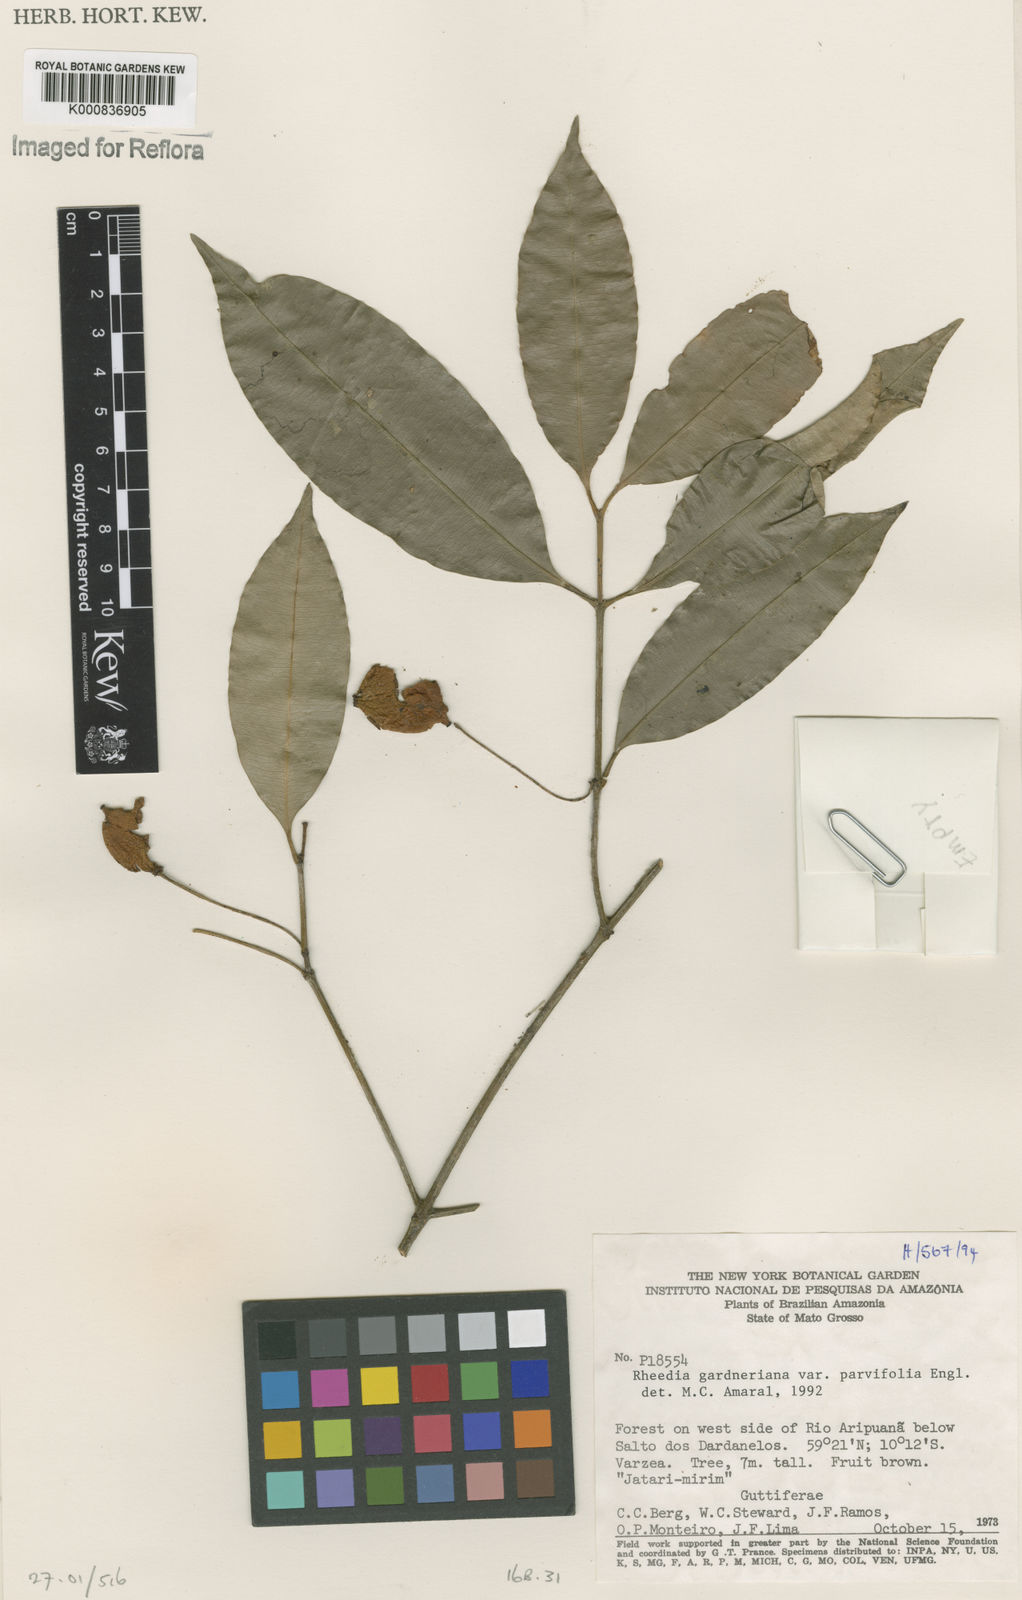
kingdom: Plantae
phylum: Tracheophyta
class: Magnoliopsida
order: Malpighiales
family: Clusiaceae
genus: Garcinia
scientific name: Garcinia gardneriana
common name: Achacha
